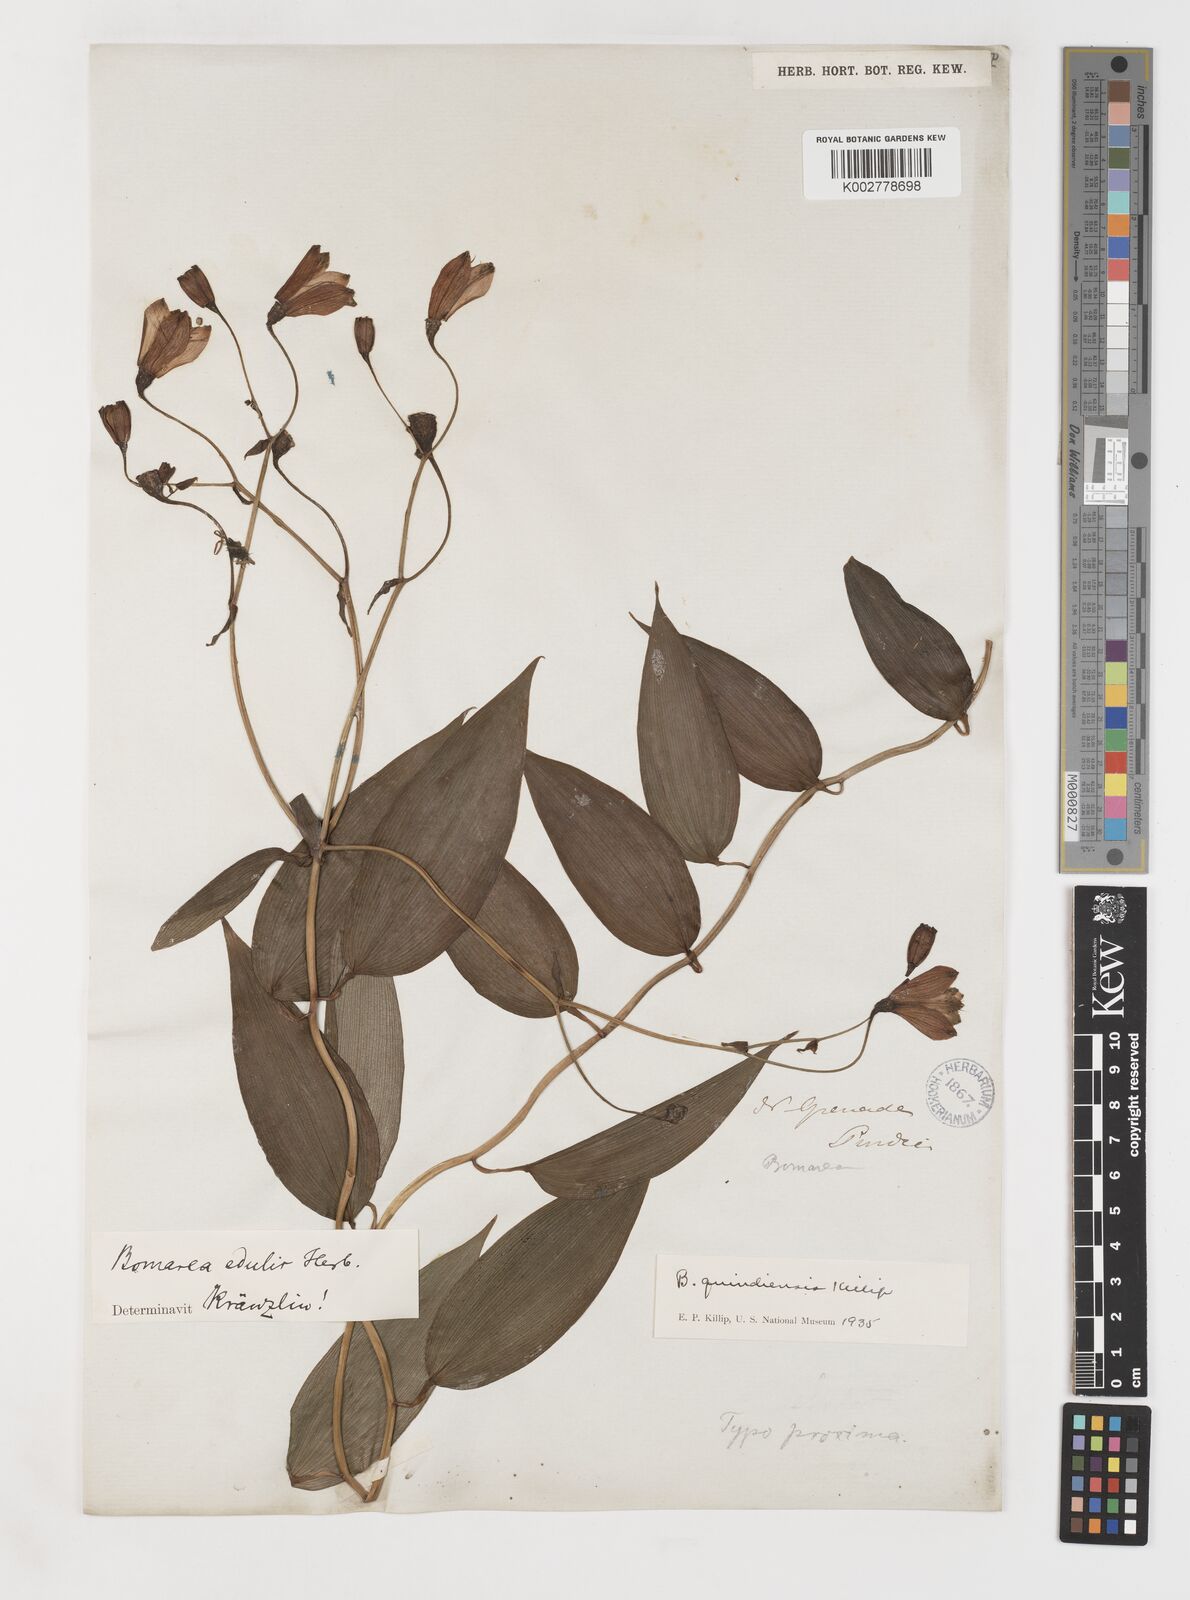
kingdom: Plantae
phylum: Tracheophyta
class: Liliopsida
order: Liliales
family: Alstroemeriaceae
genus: Bomarea
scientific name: Bomarea edulis
